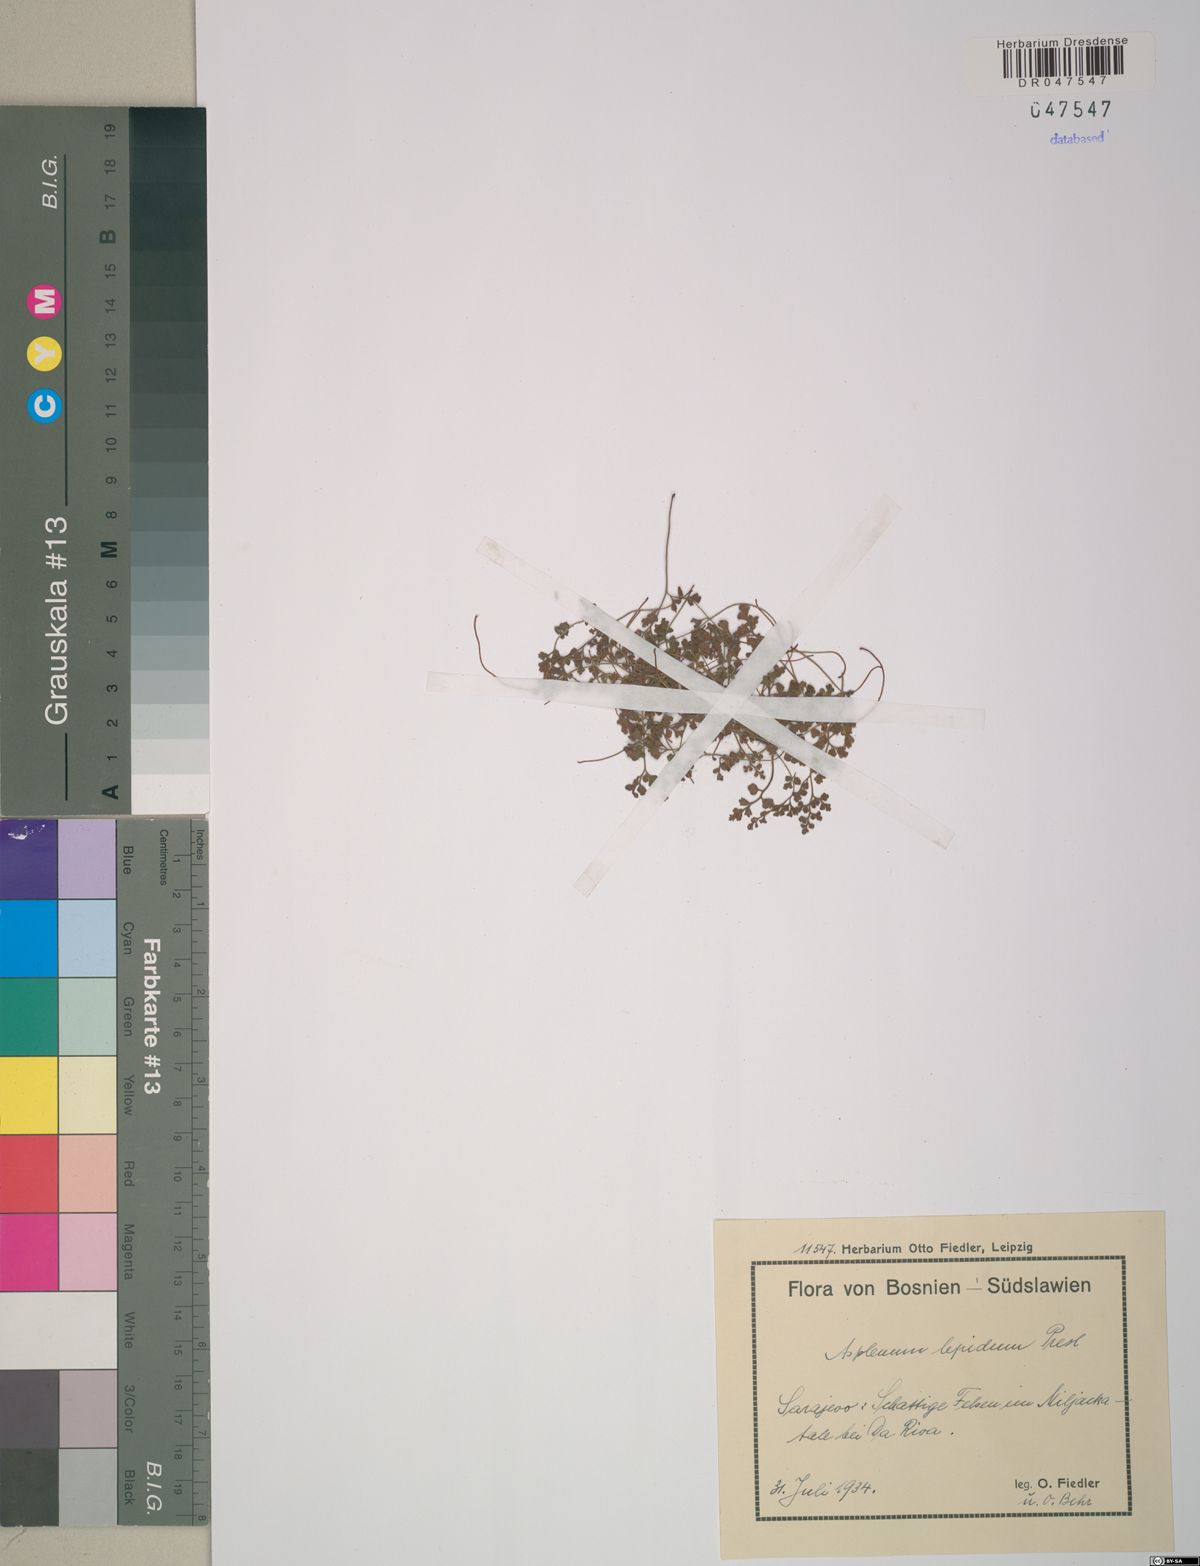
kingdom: Plantae
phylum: Tracheophyta
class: Polypodiopsida
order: Polypodiales
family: Aspleniaceae
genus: Asplenium
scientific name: Asplenium lepidum
